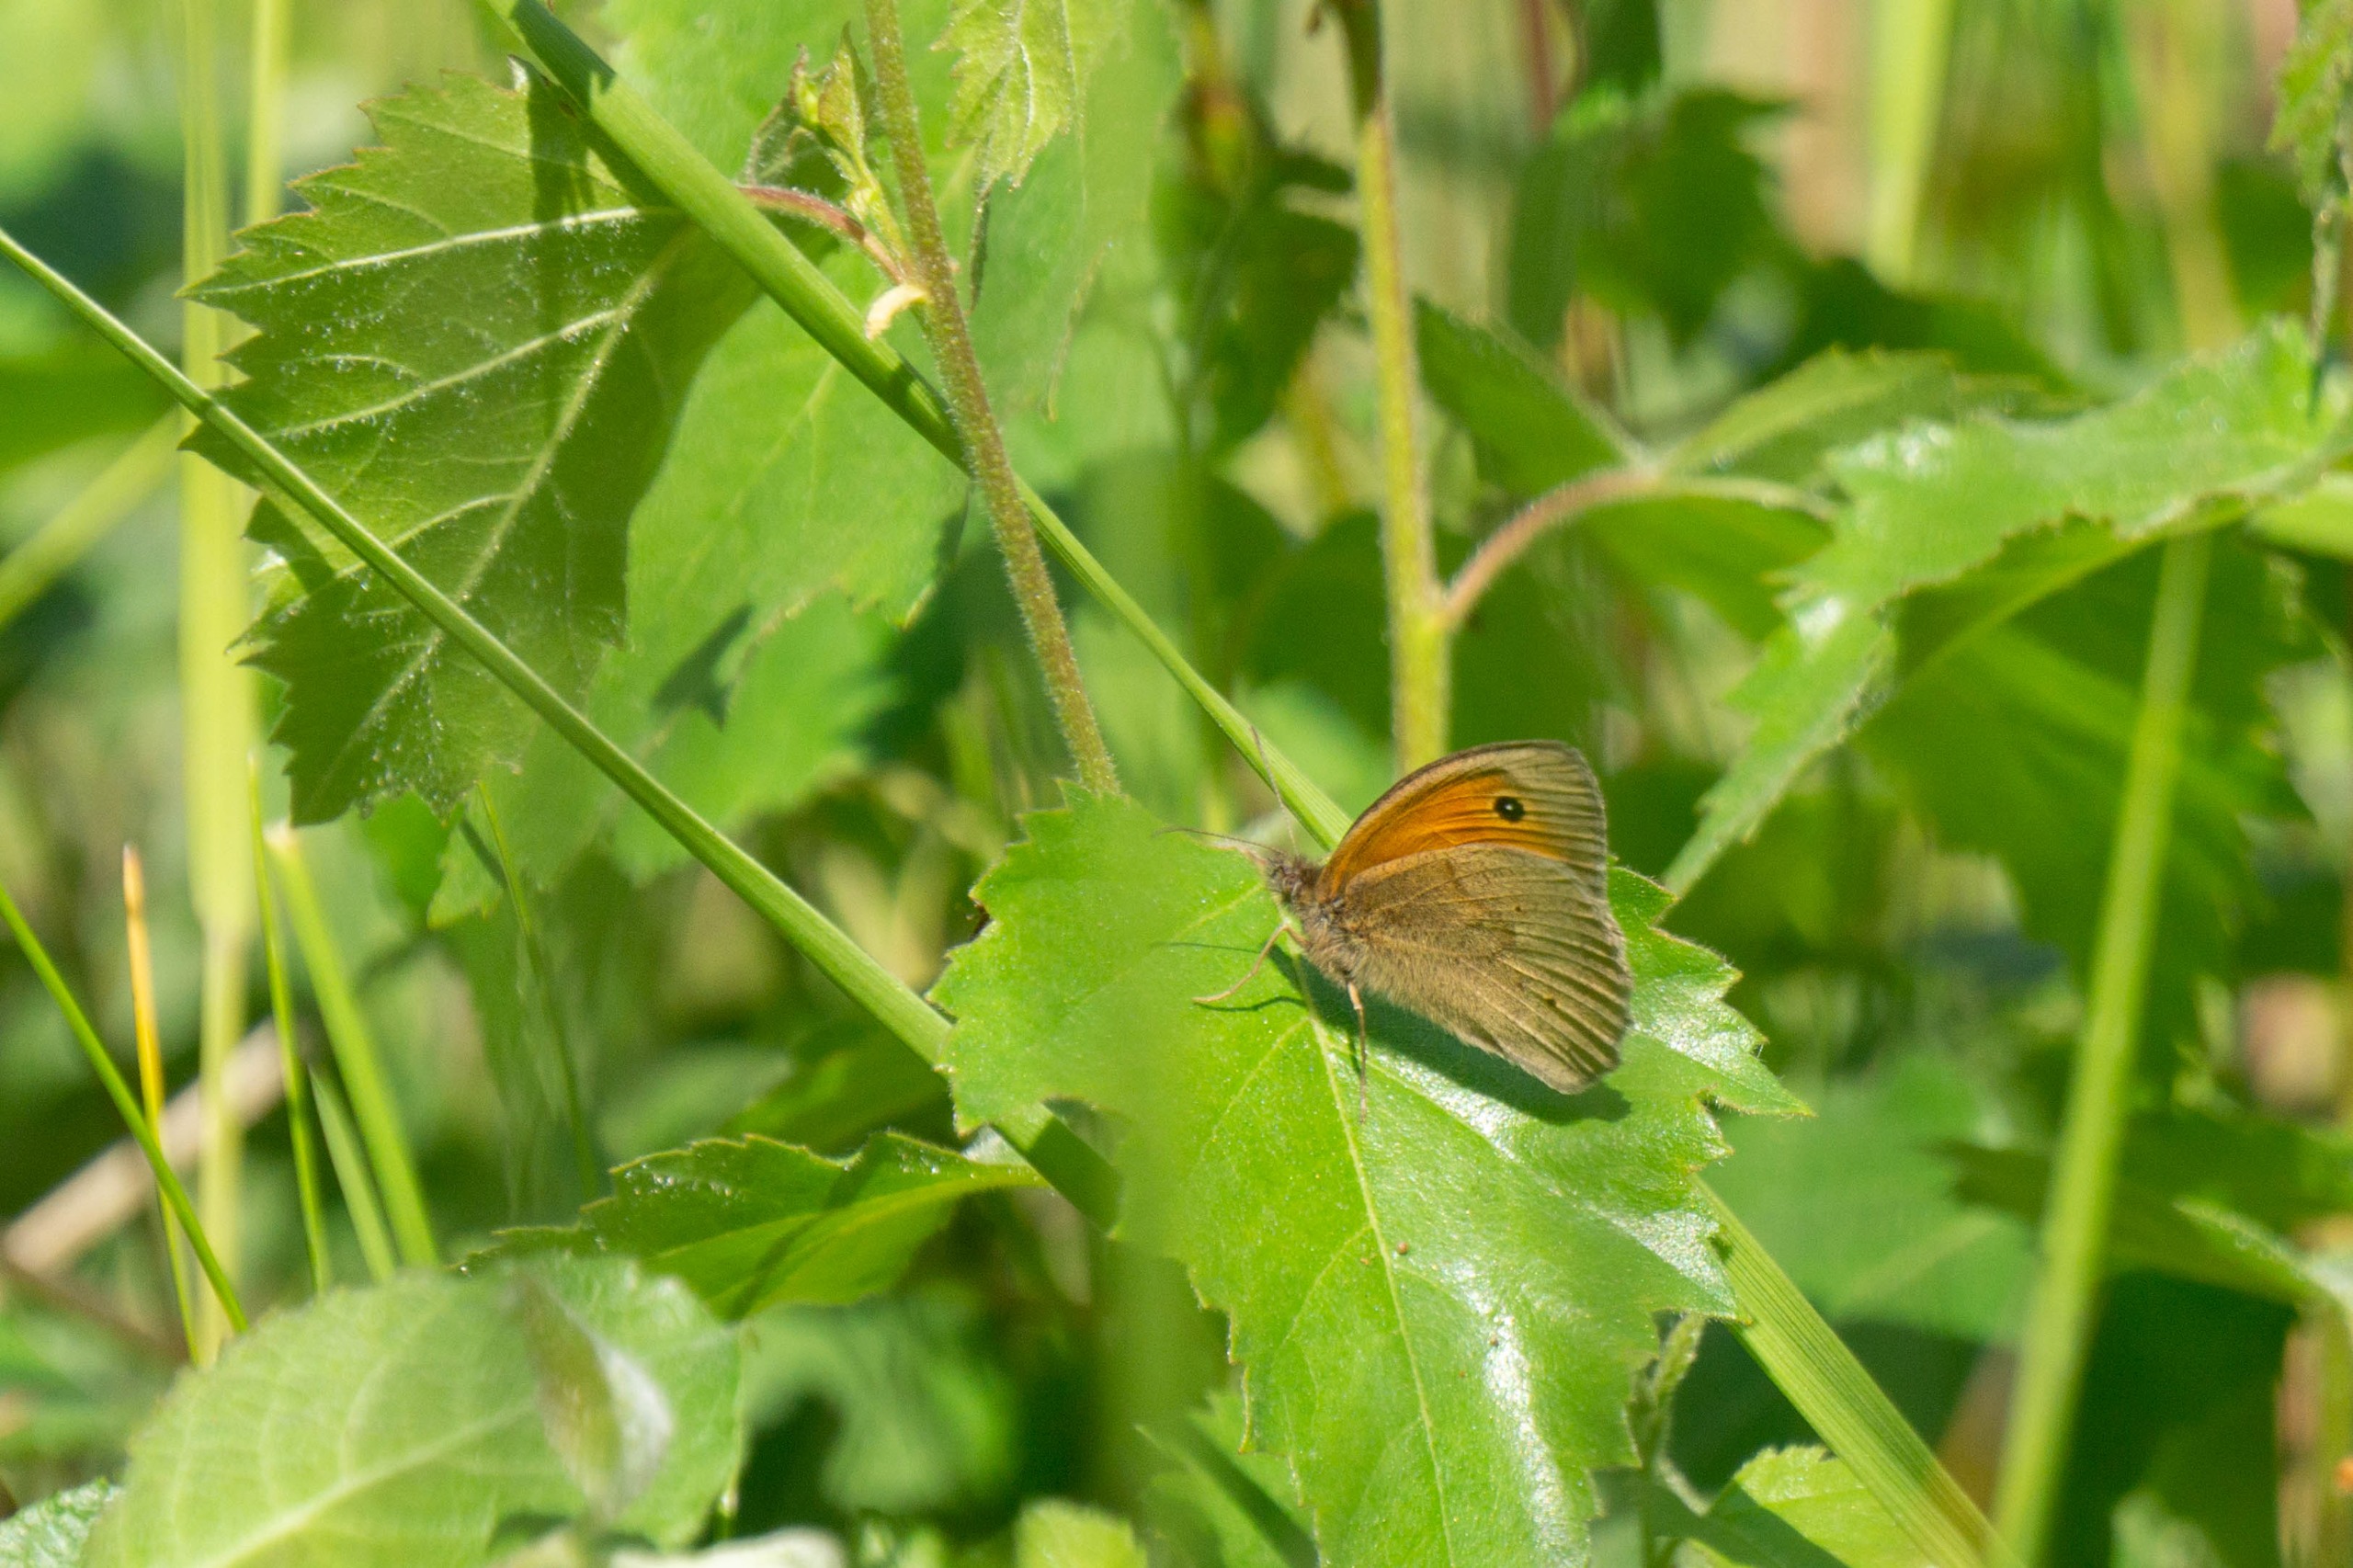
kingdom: Animalia
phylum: Arthropoda
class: Insecta
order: Lepidoptera
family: Nymphalidae
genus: Maniola
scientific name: Maniola jurtina
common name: Græsrandøje
